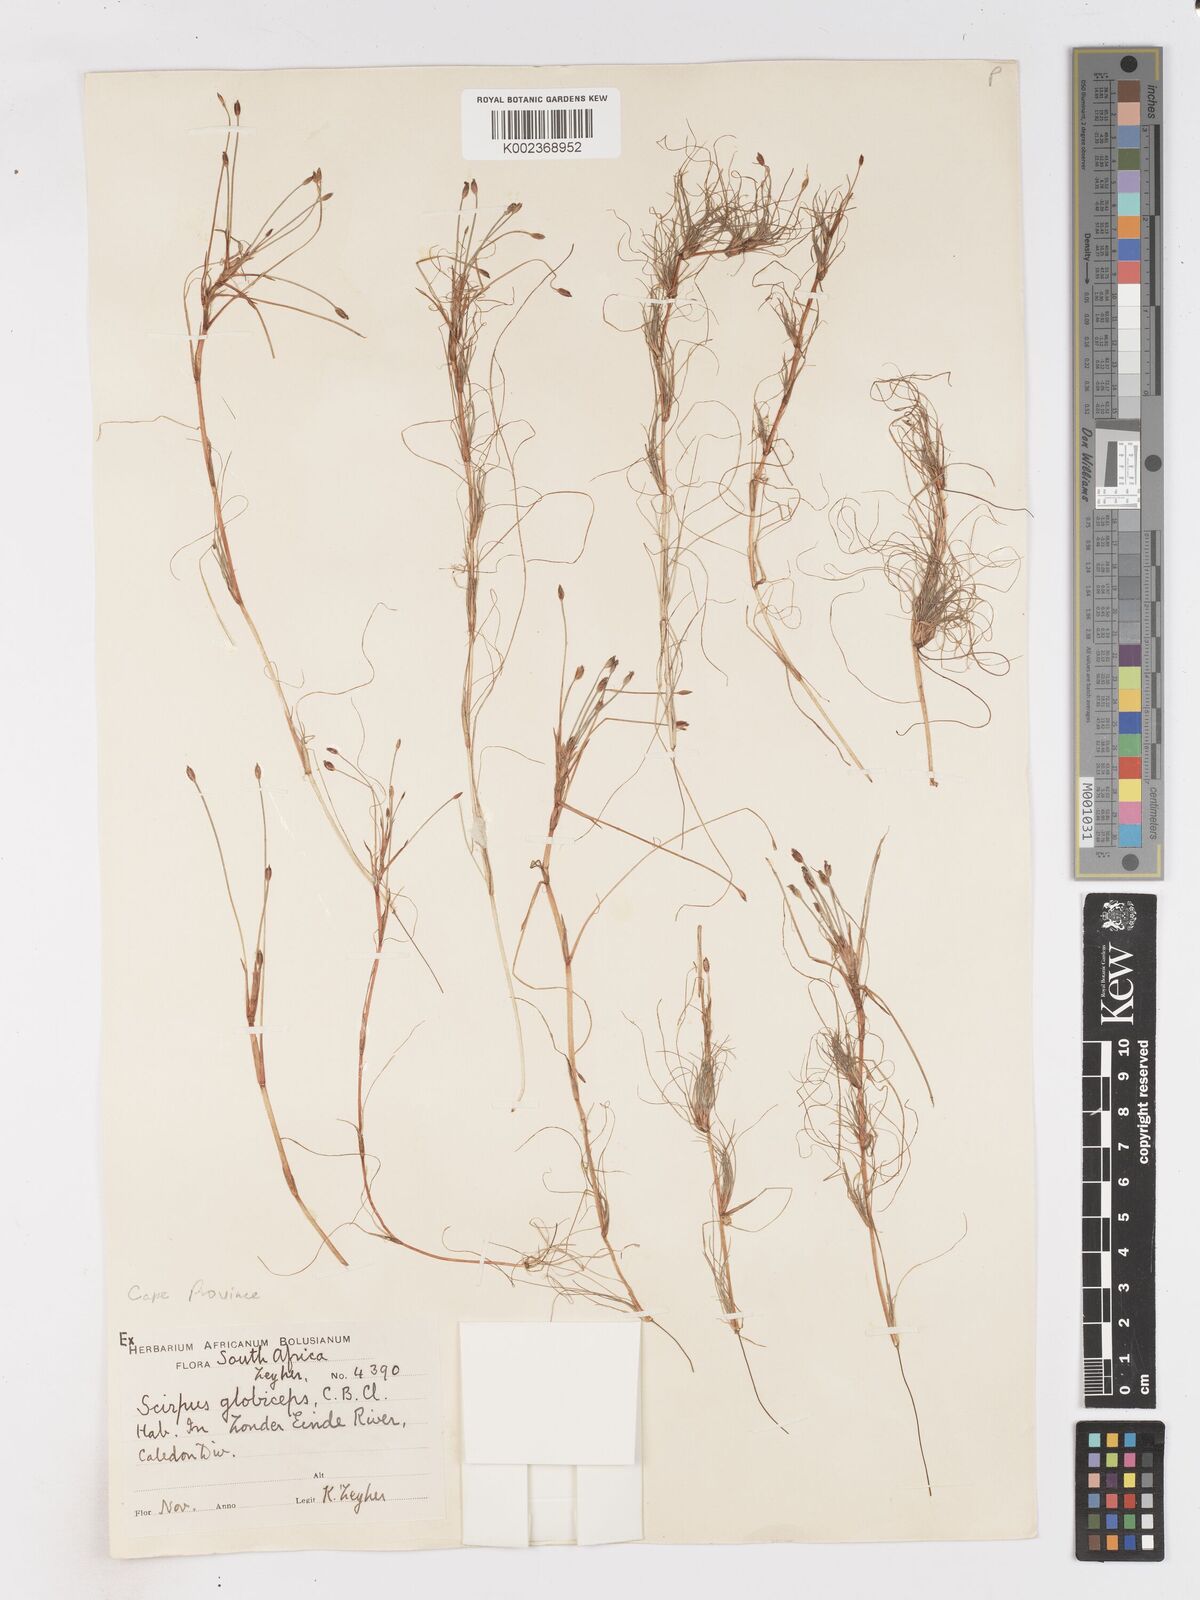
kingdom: Plantae
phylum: Tracheophyta
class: Liliopsida
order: Poales
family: Cyperaceae
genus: Isolepis
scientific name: Isolepis rubicunda
